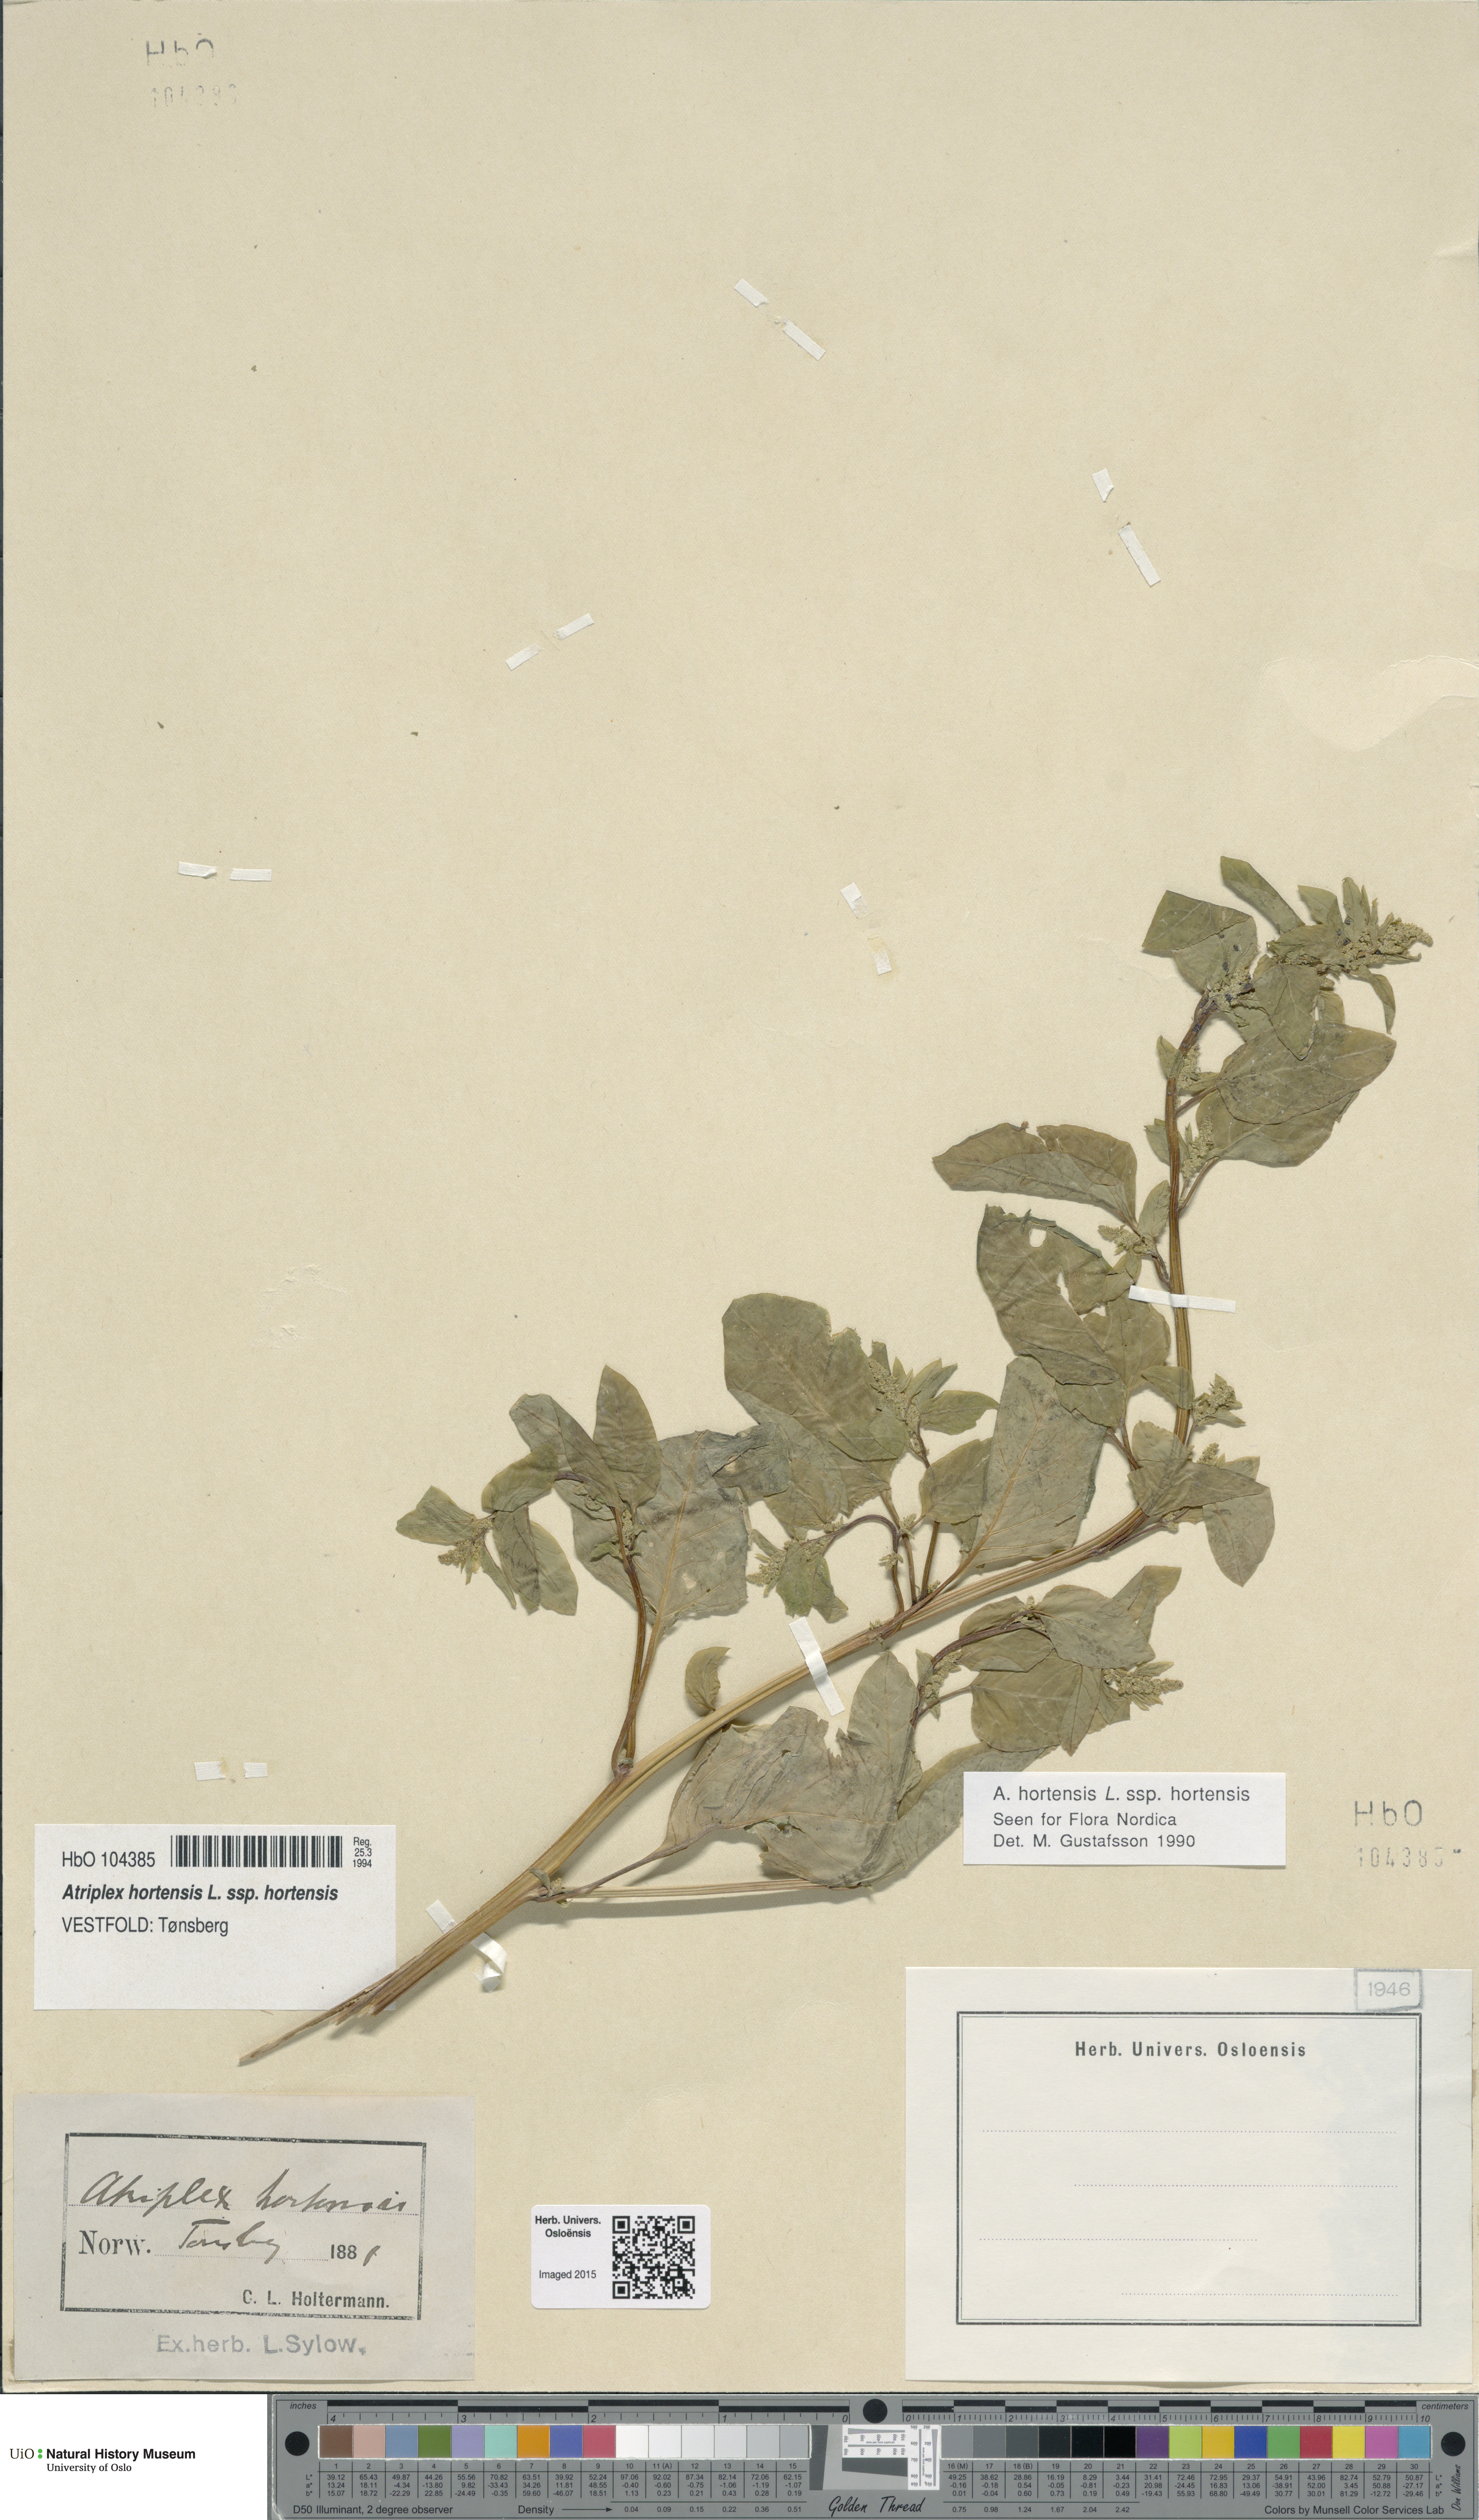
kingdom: Plantae
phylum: Tracheophyta
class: Magnoliopsida
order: Caryophyllales
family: Amaranthaceae
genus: Atriplex
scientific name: Atriplex hortensis
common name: Garden orache
